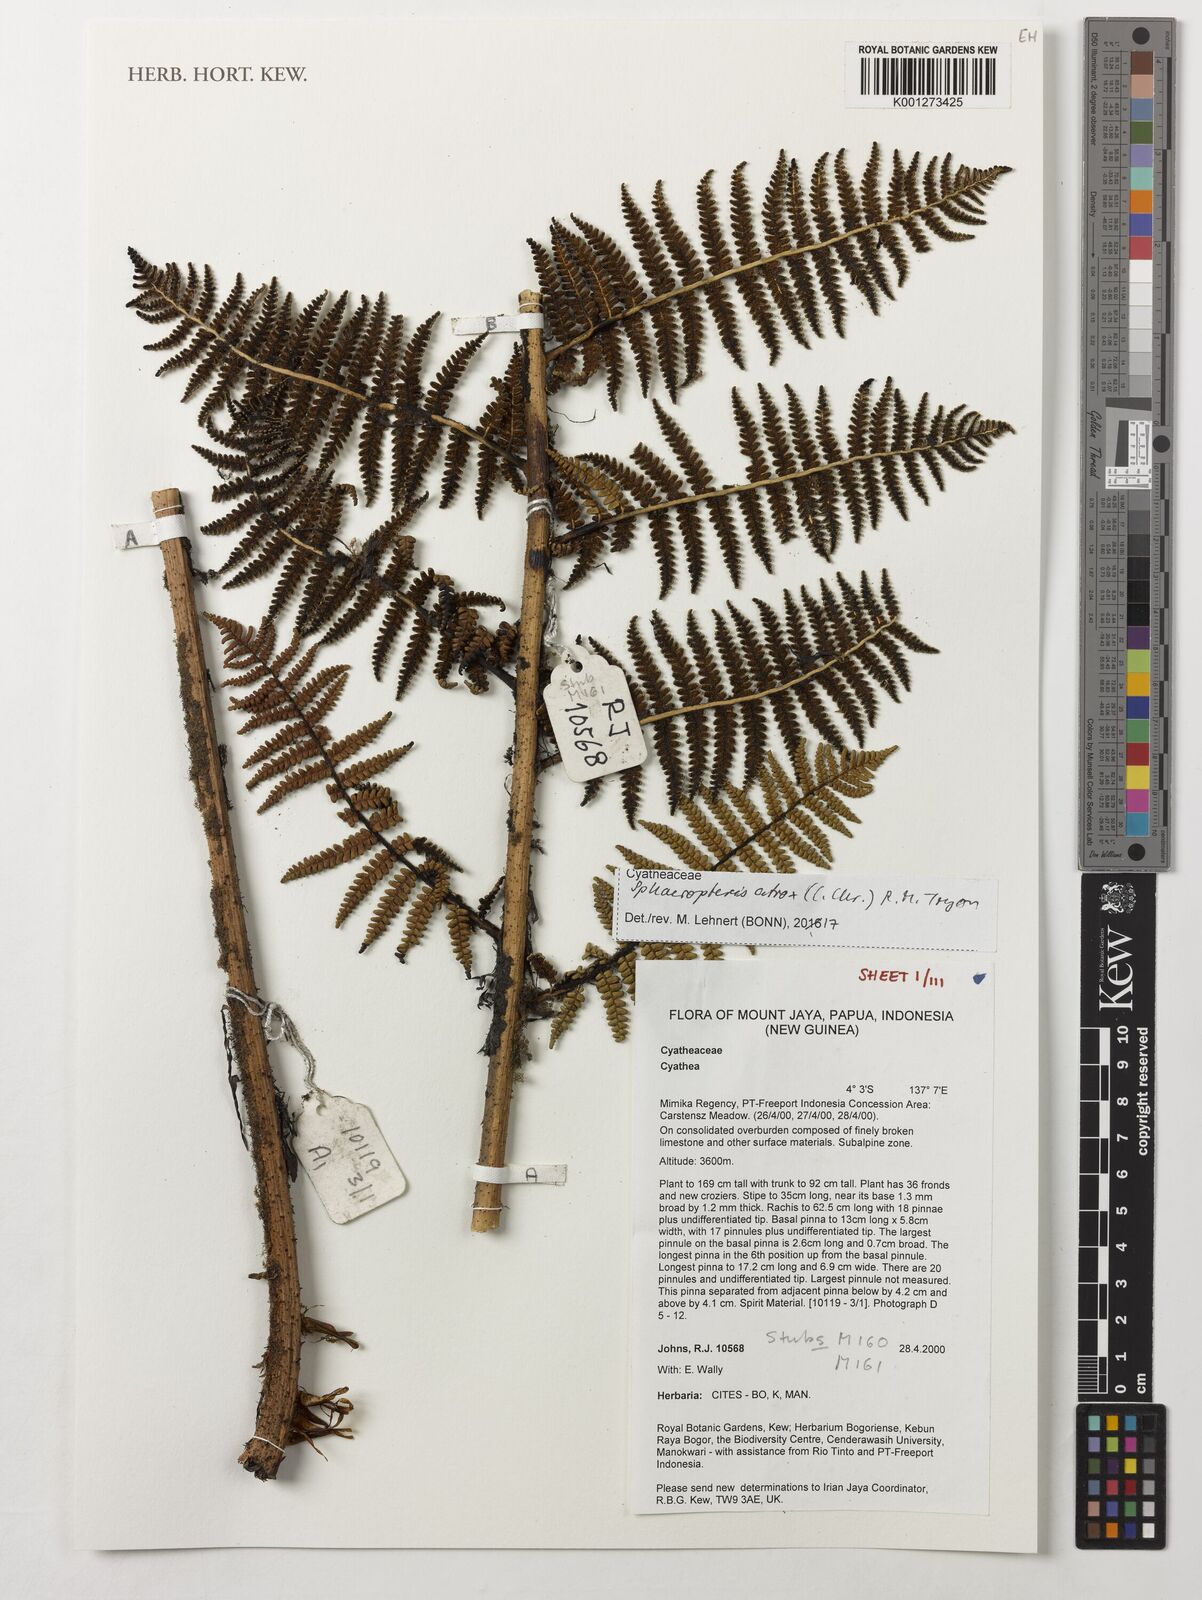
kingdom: Plantae
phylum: Tracheophyta
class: Polypodiopsida
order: Cyatheales
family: Cyatheaceae
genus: Sphaeropteris
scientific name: Sphaeropteris atrox
